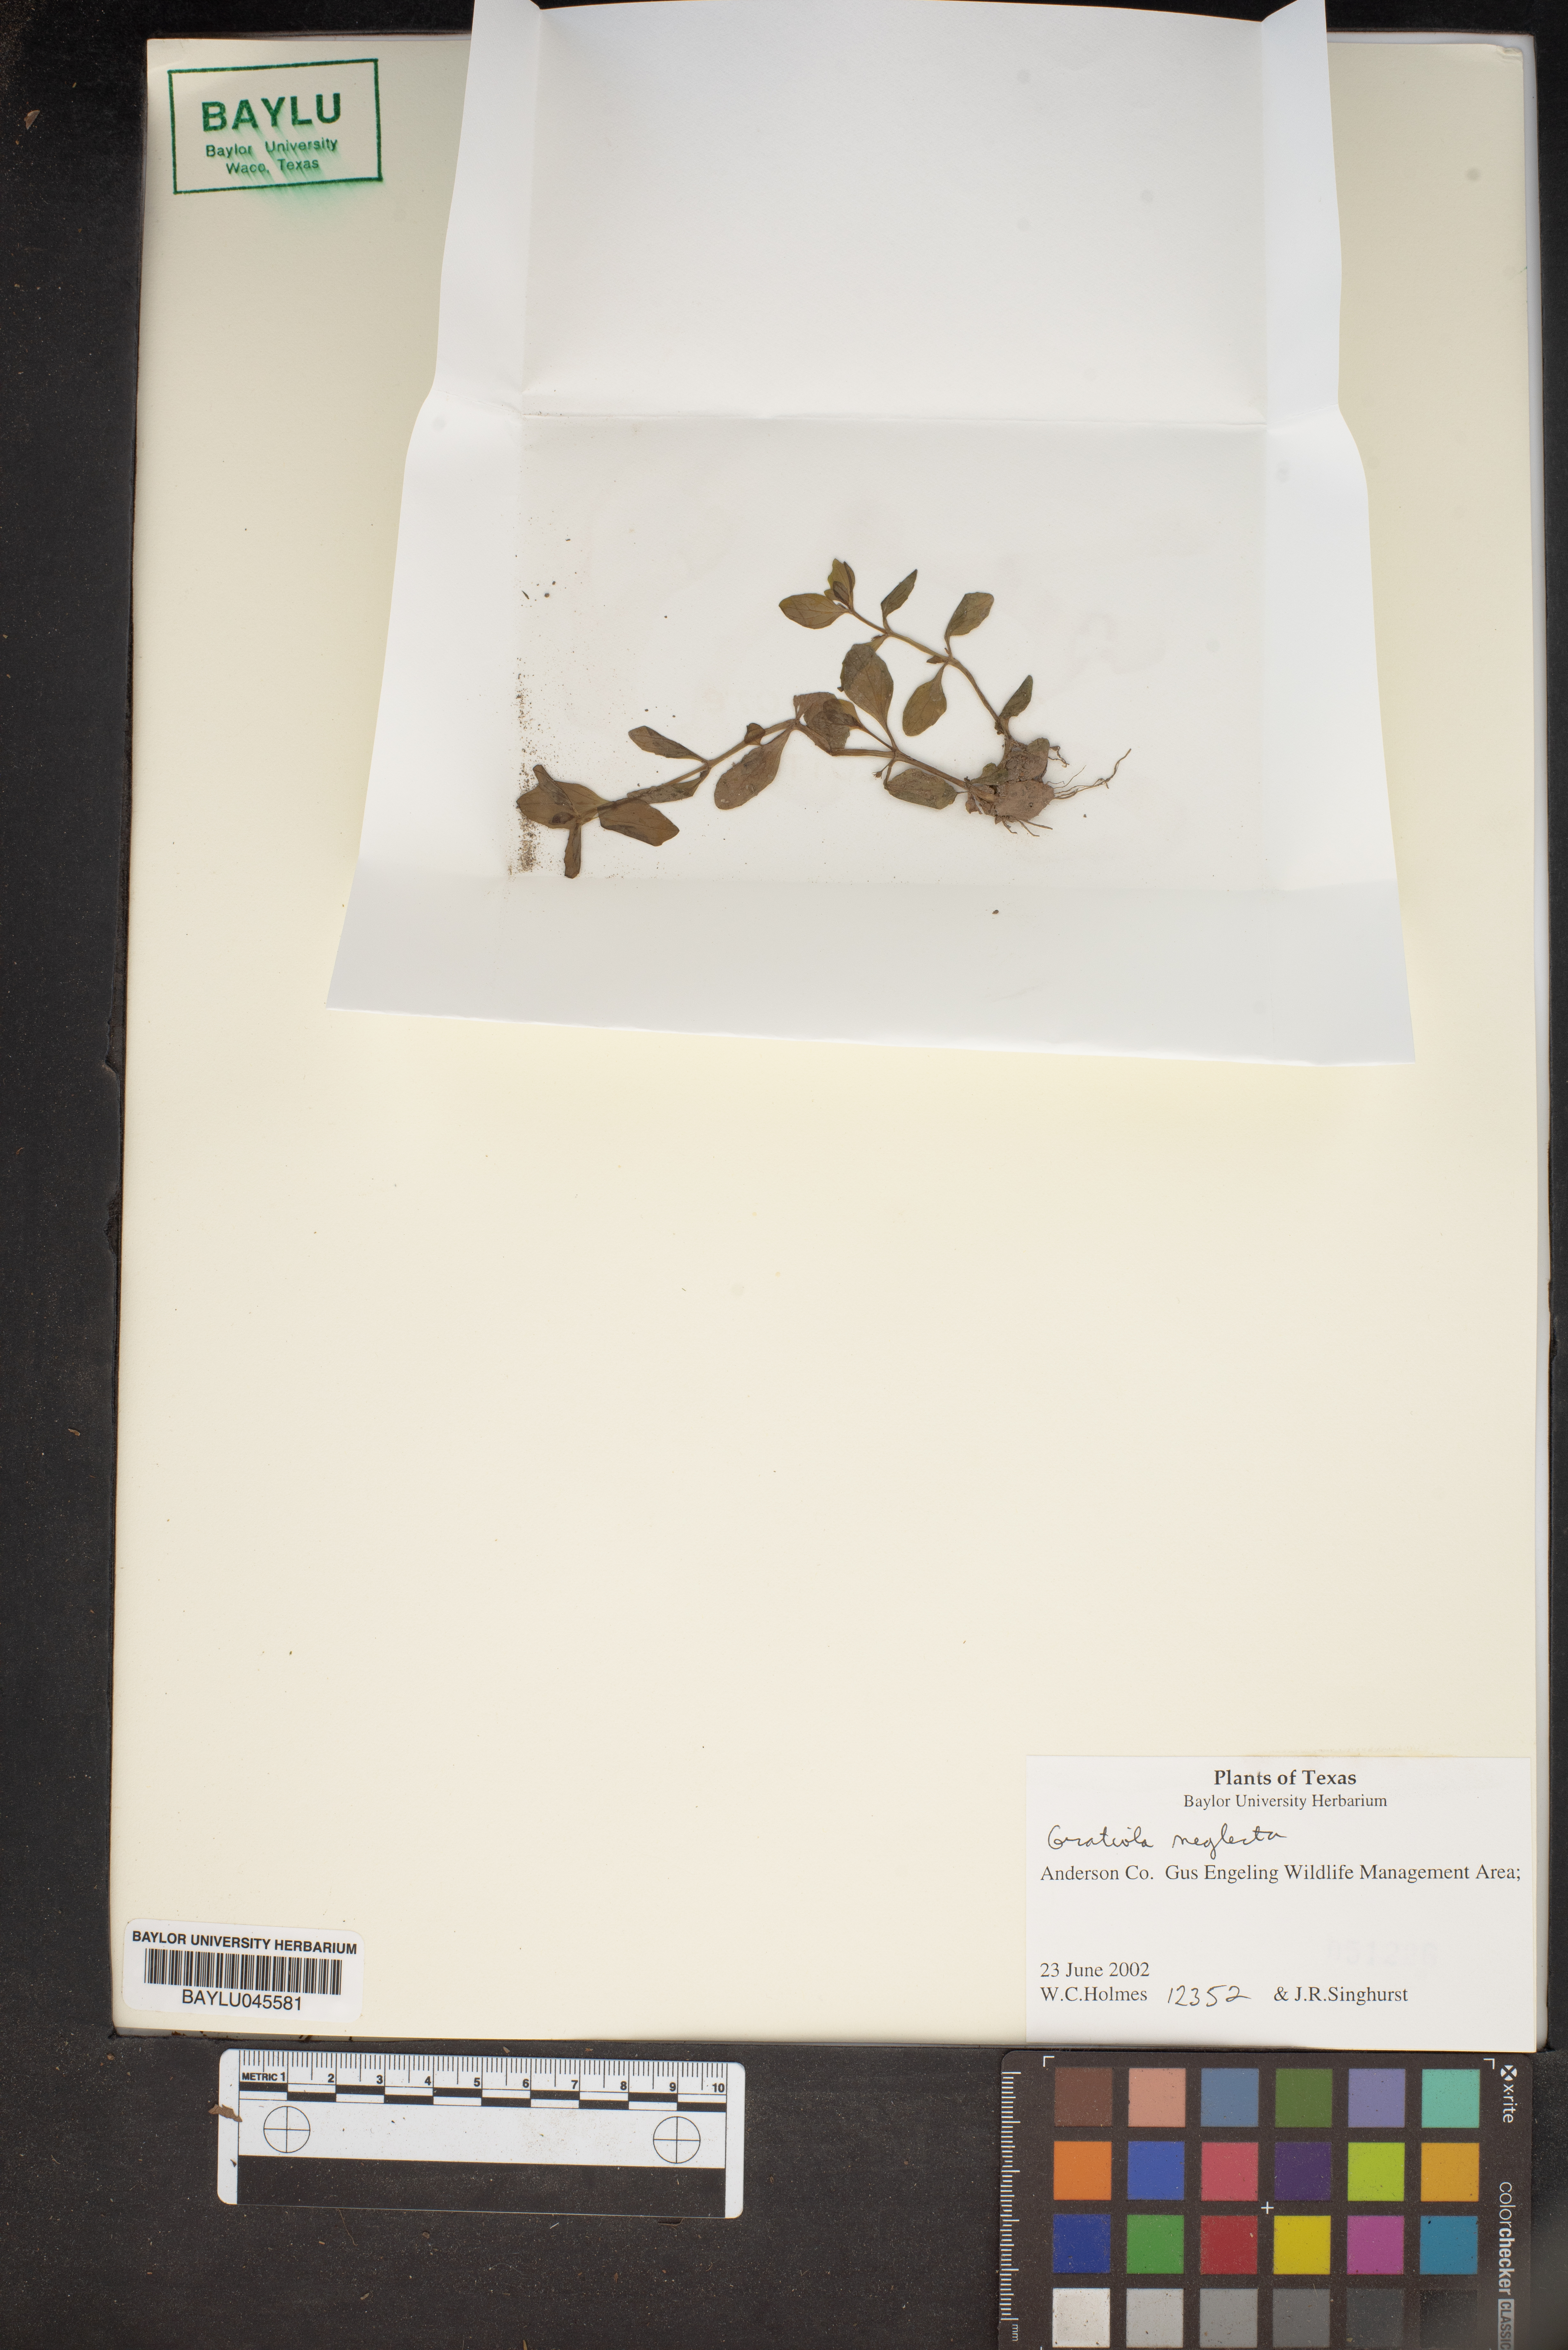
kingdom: Plantae
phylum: Tracheophyta
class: Magnoliopsida
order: Lamiales
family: Plantaginaceae
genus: Gratiola
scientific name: Gratiola neglecta
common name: American hedge-hyssop
